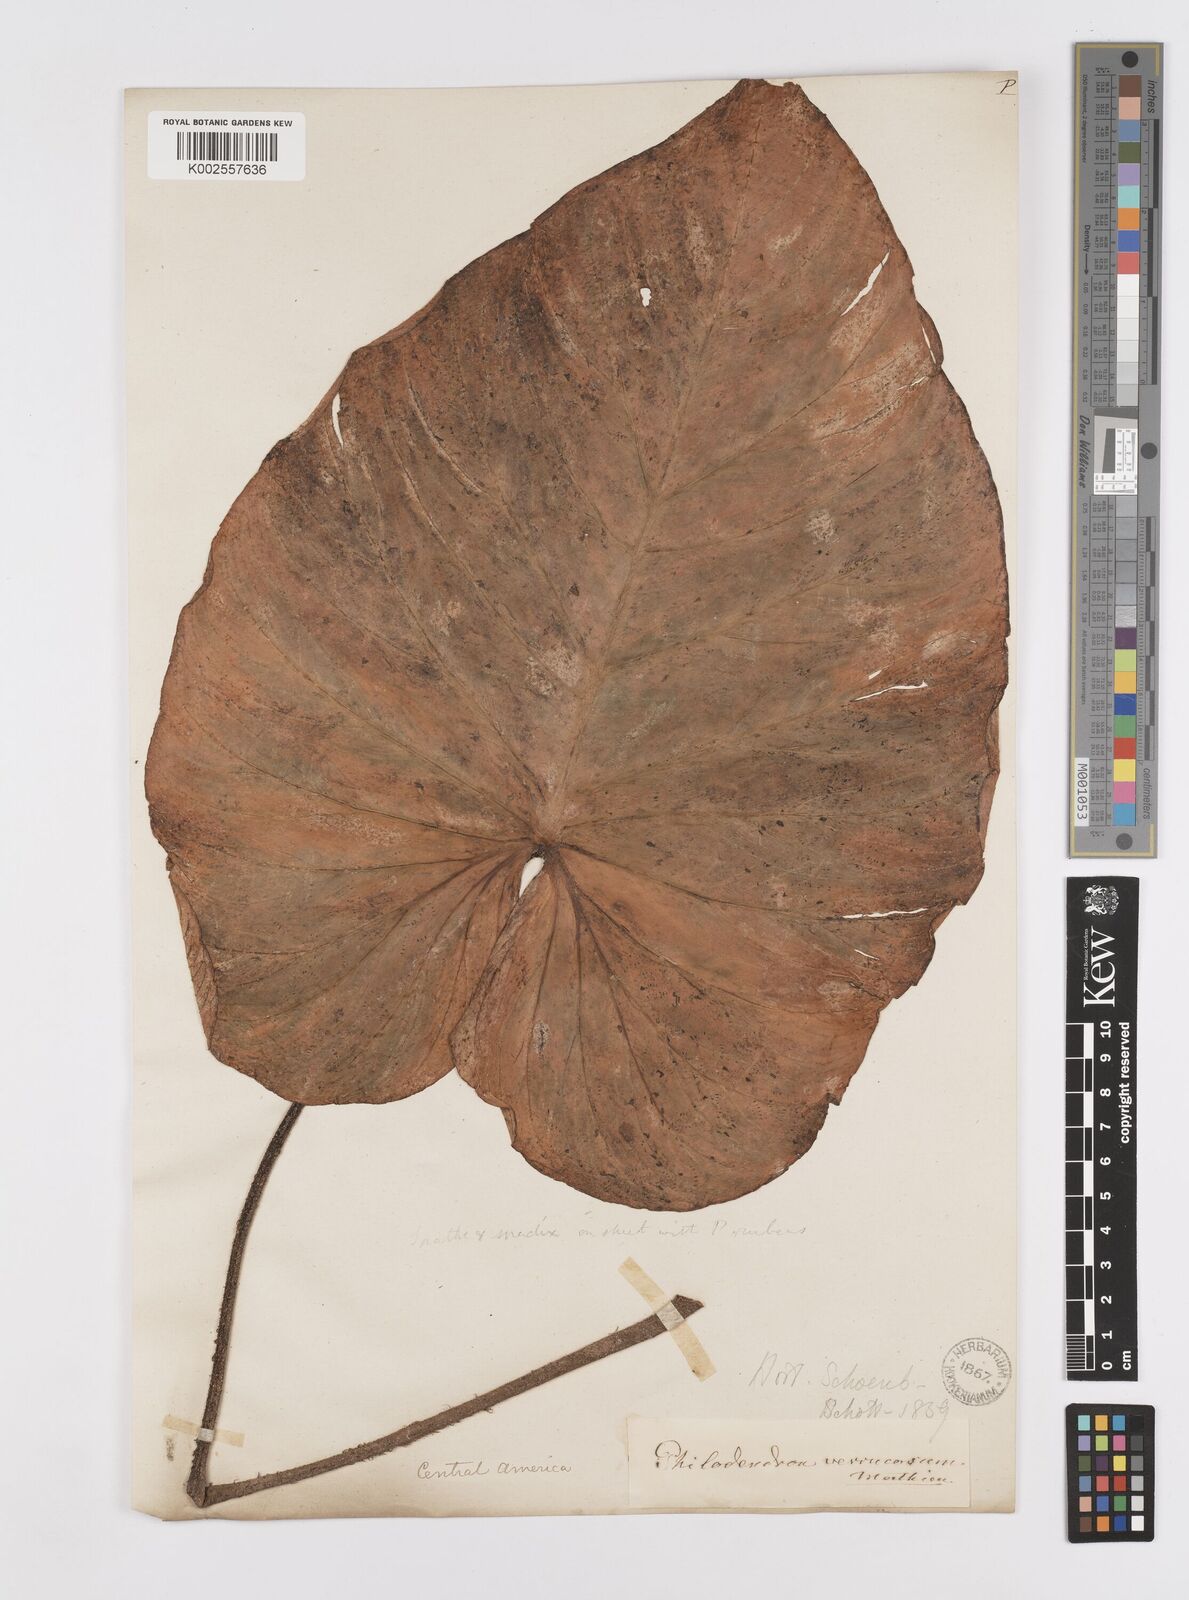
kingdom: Plantae
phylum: Tracheophyta
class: Liliopsida
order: Alismatales
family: Araceae
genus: Philodendron
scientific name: Philodendron verrucosum
